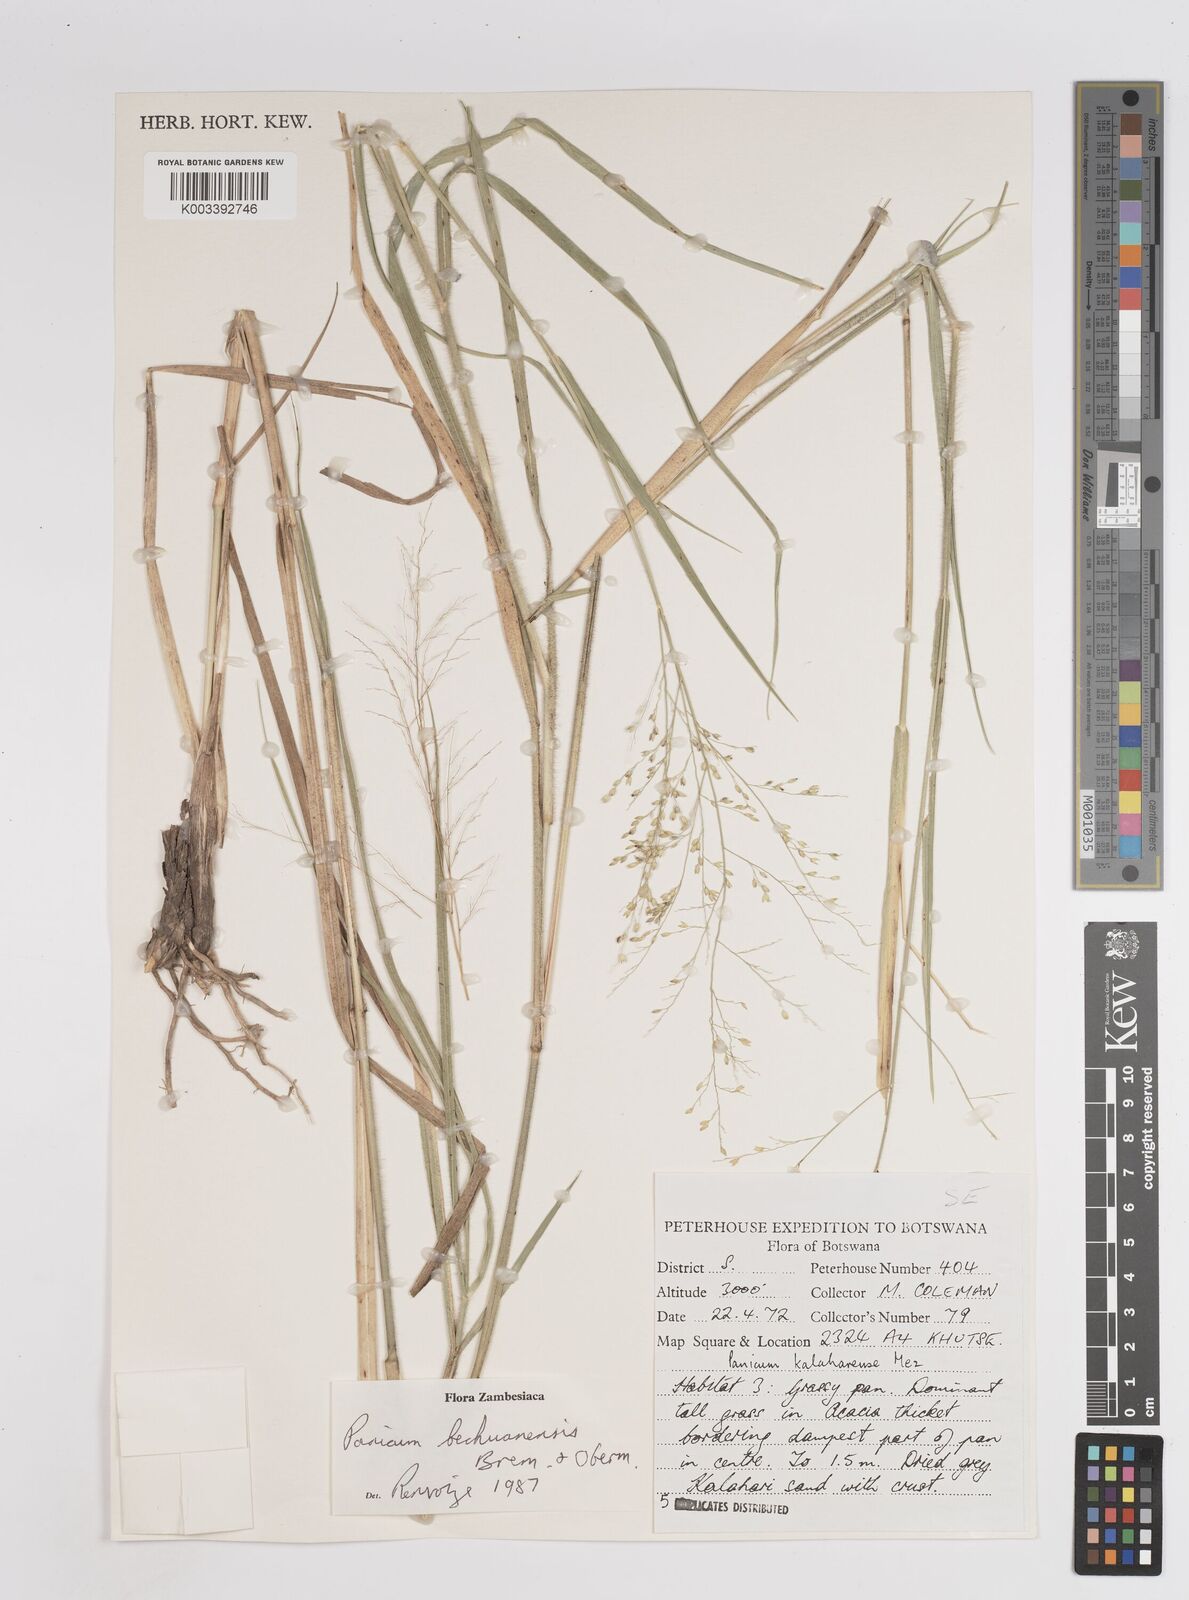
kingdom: Plantae
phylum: Tracheophyta
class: Liliopsida
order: Poales
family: Poaceae
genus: Panicum
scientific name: Panicum bechuanense
